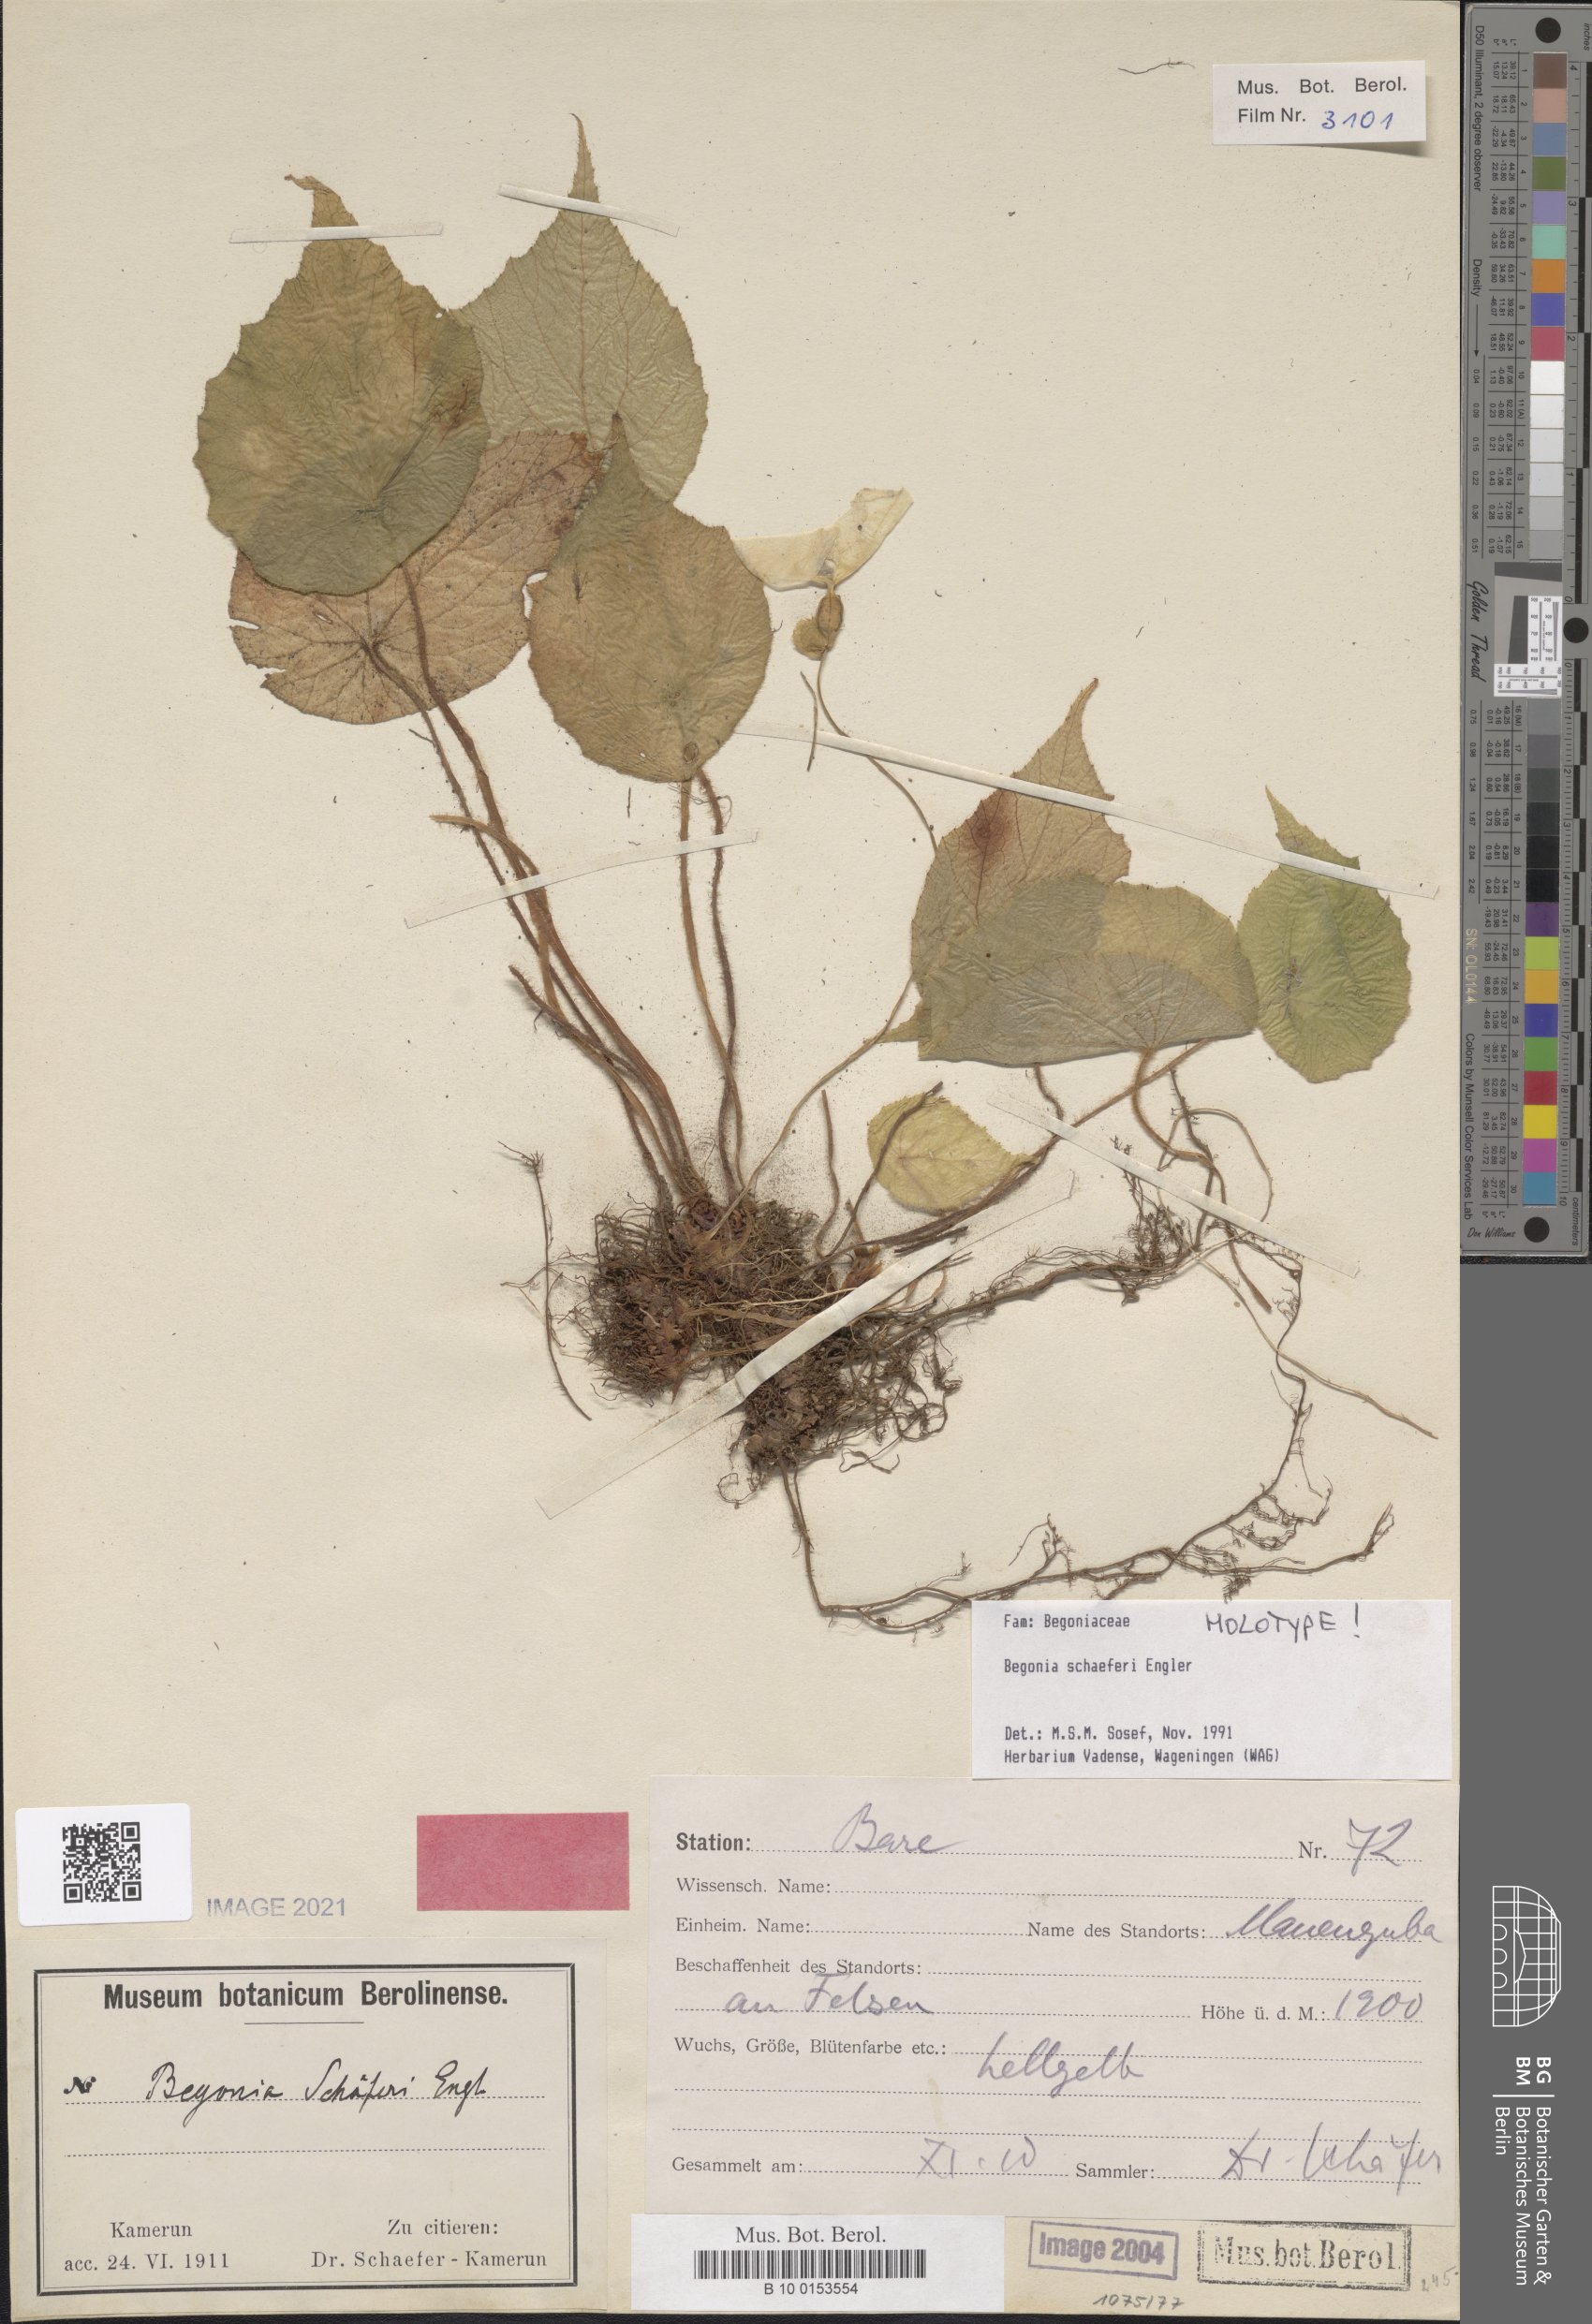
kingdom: Plantae
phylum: Tracheophyta
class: Magnoliopsida
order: Cucurbitales
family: Begoniaceae
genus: Begonia
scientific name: Begonia schaeferi
